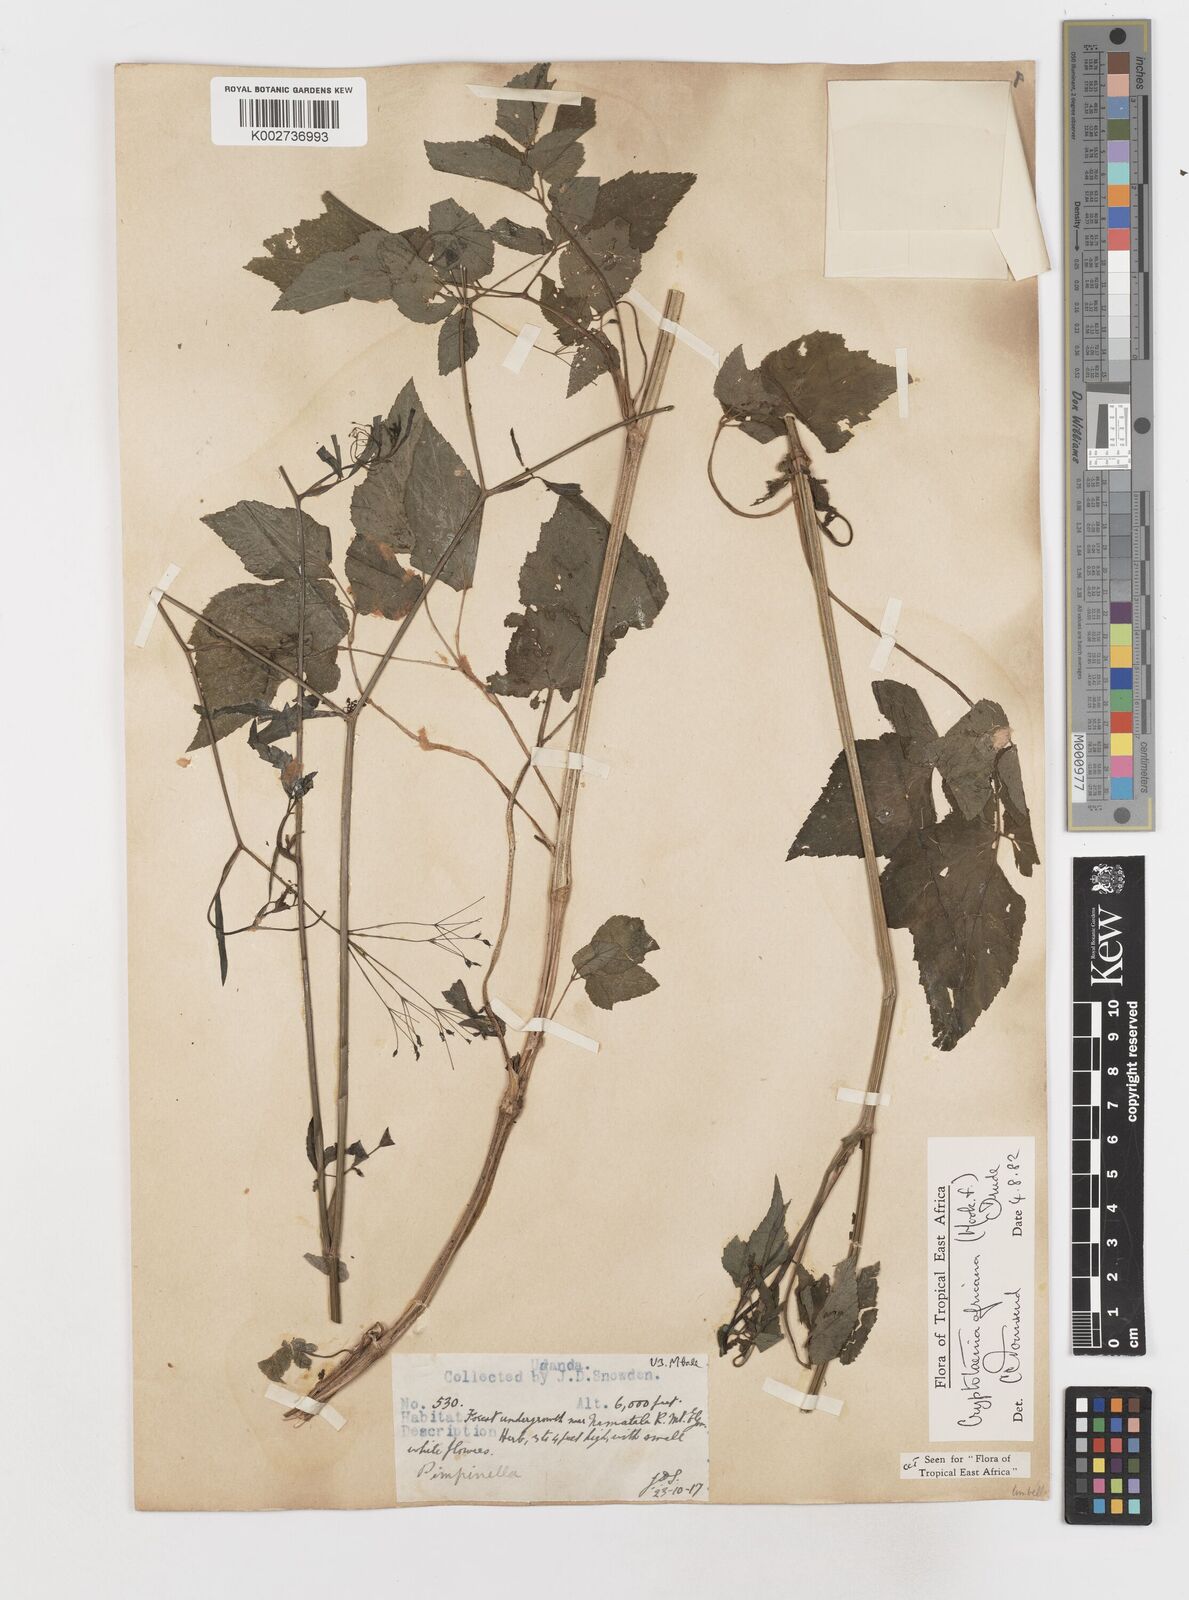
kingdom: Plantae
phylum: Tracheophyta
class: Magnoliopsida
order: Apiales
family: Apiaceae
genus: Cryptotaenia
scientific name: Cryptotaenia africana
